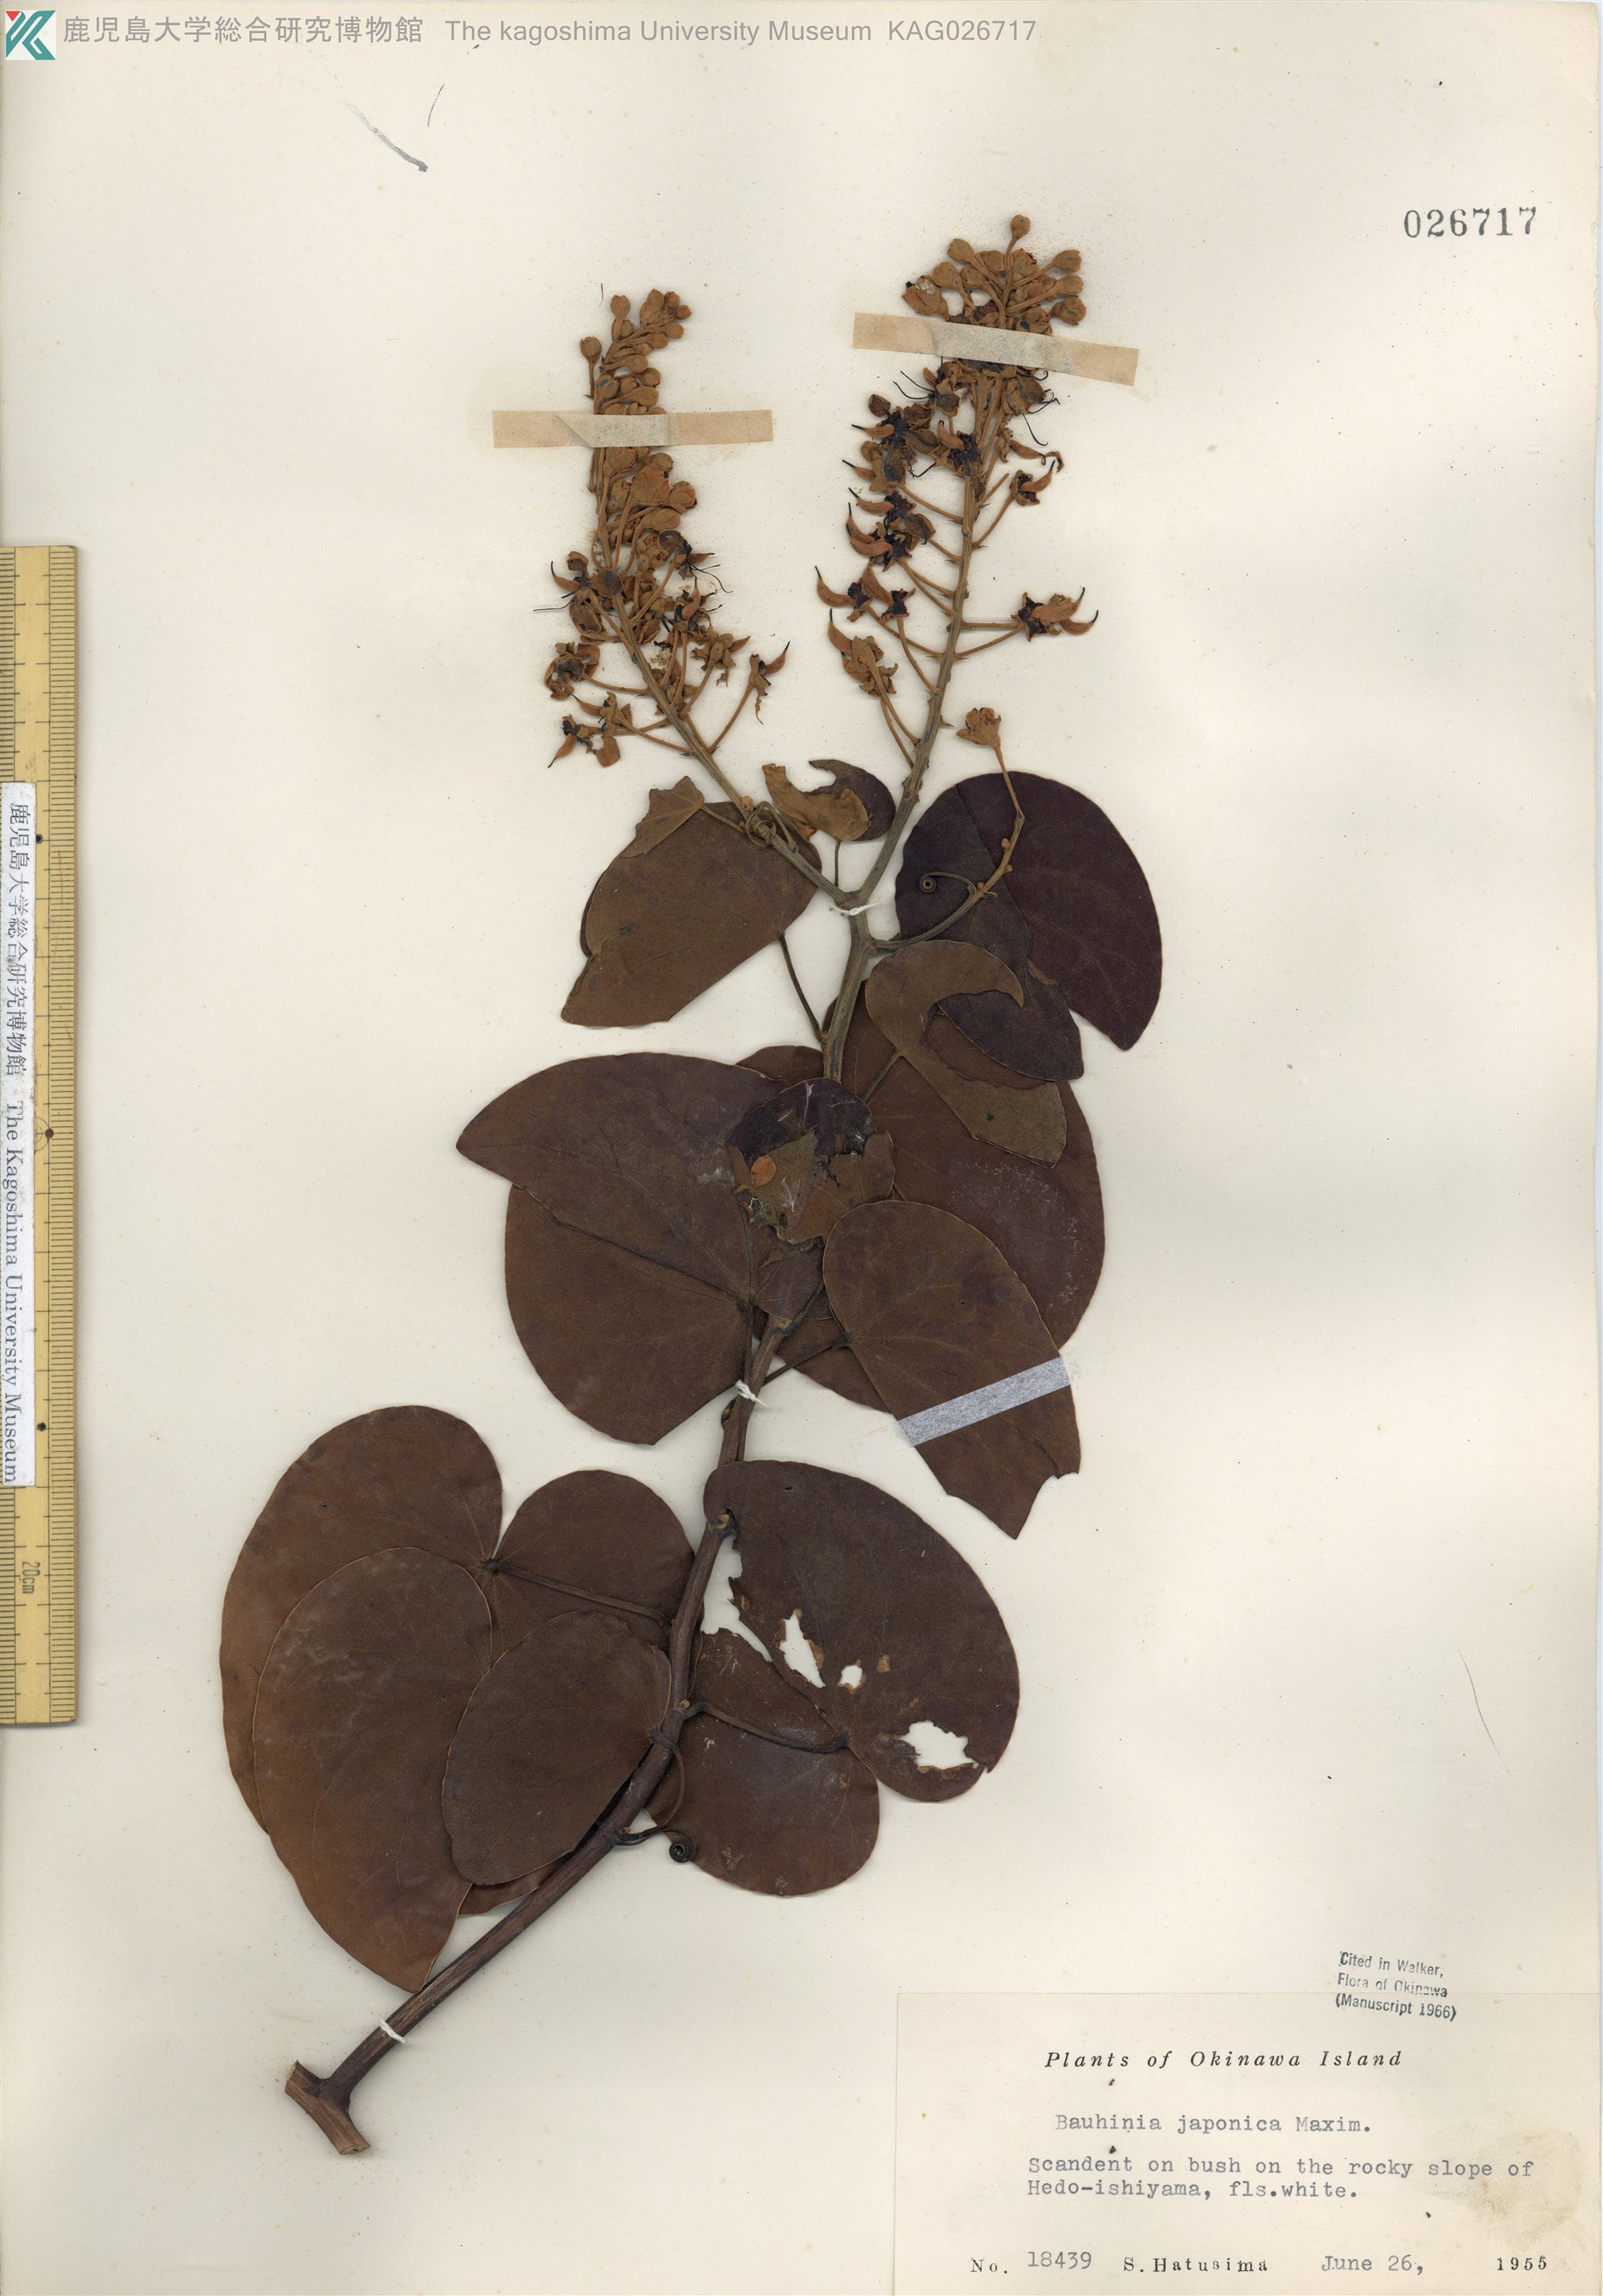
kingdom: Plantae
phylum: Tracheophyta
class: Magnoliopsida
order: Fabales
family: Fabaceae
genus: Phanera
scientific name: Phanera japonica
